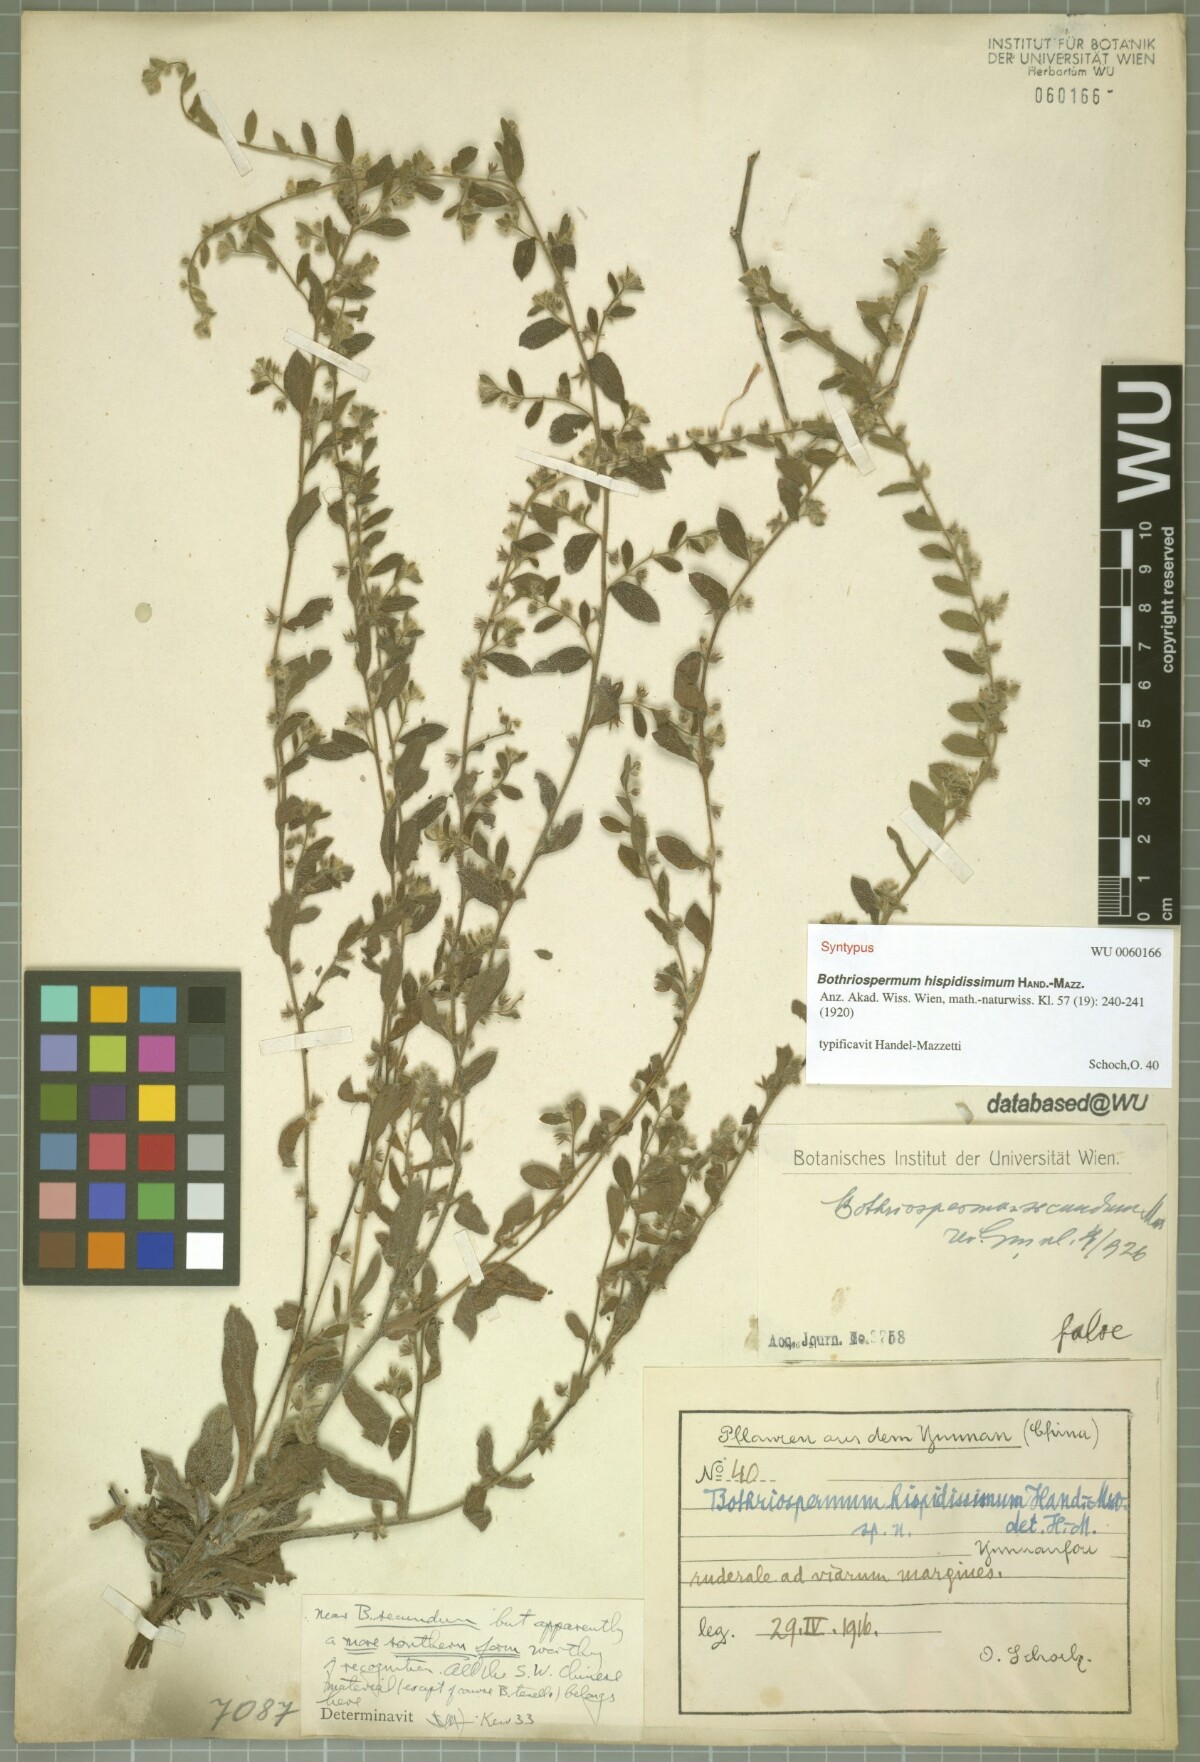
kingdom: Plantae
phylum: Tracheophyta
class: Magnoliopsida
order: Boraginales
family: Boraginaceae
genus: Bothriospermum
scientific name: Bothriospermum hispidissimum
